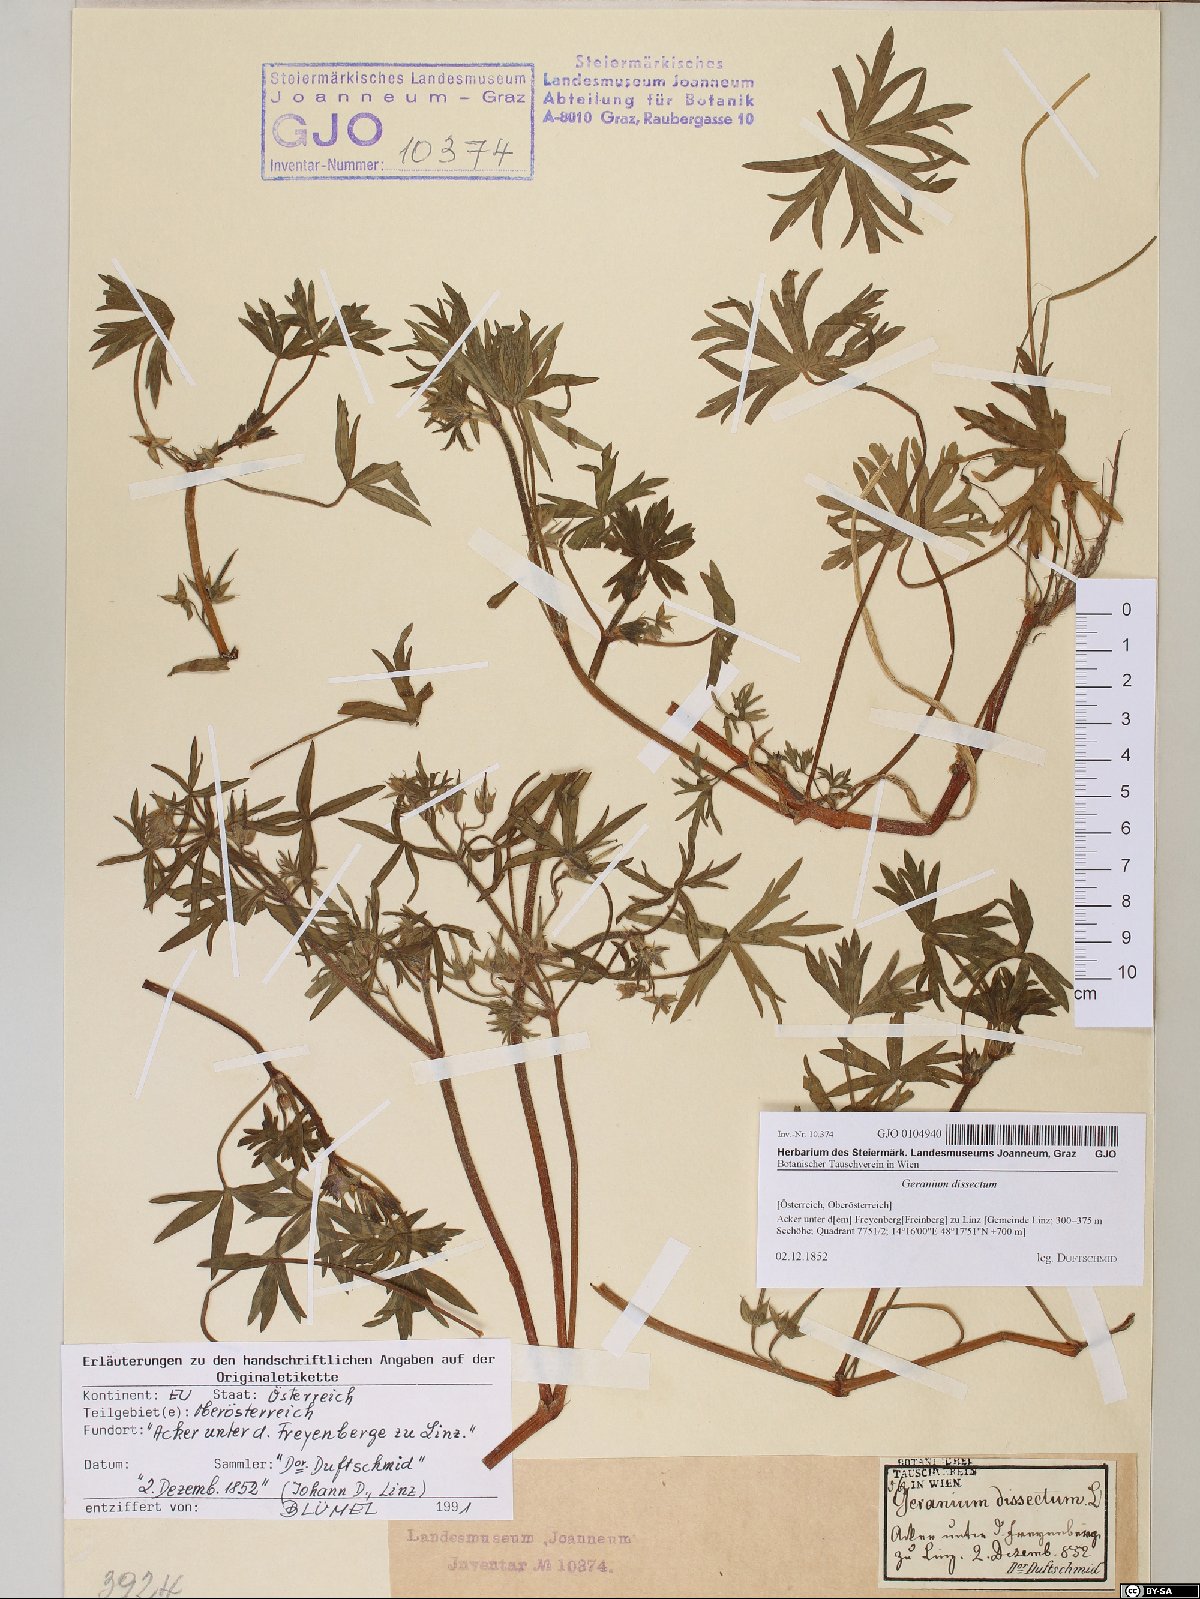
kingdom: Plantae
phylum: Tracheophyta
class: Magnoliopsida
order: Geraniales
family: Geraniaceae
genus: Geranium
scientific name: Geranium dissectum
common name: Cut-leaved crane's-bill
